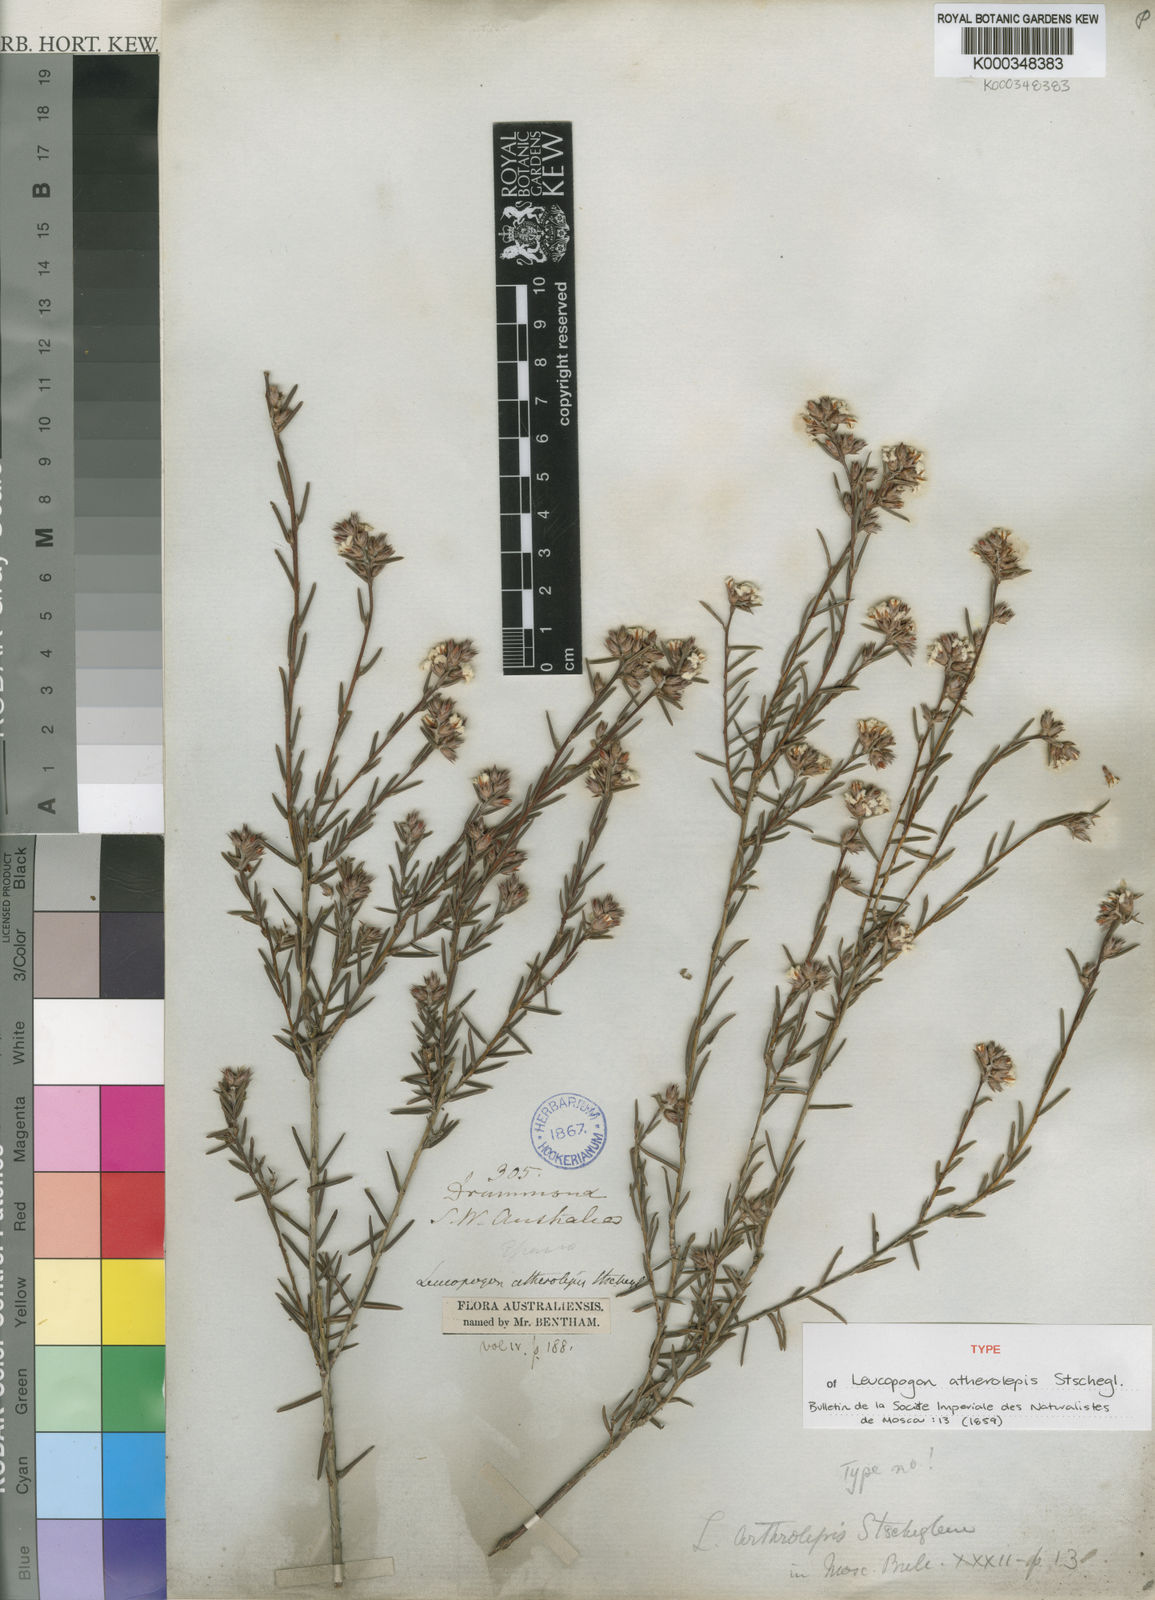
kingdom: Plantae
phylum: Tracheophyta
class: Magnoliopsida
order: Ericales
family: Ericaceae
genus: Leucopogon
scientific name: Leucopogon atherolepis
